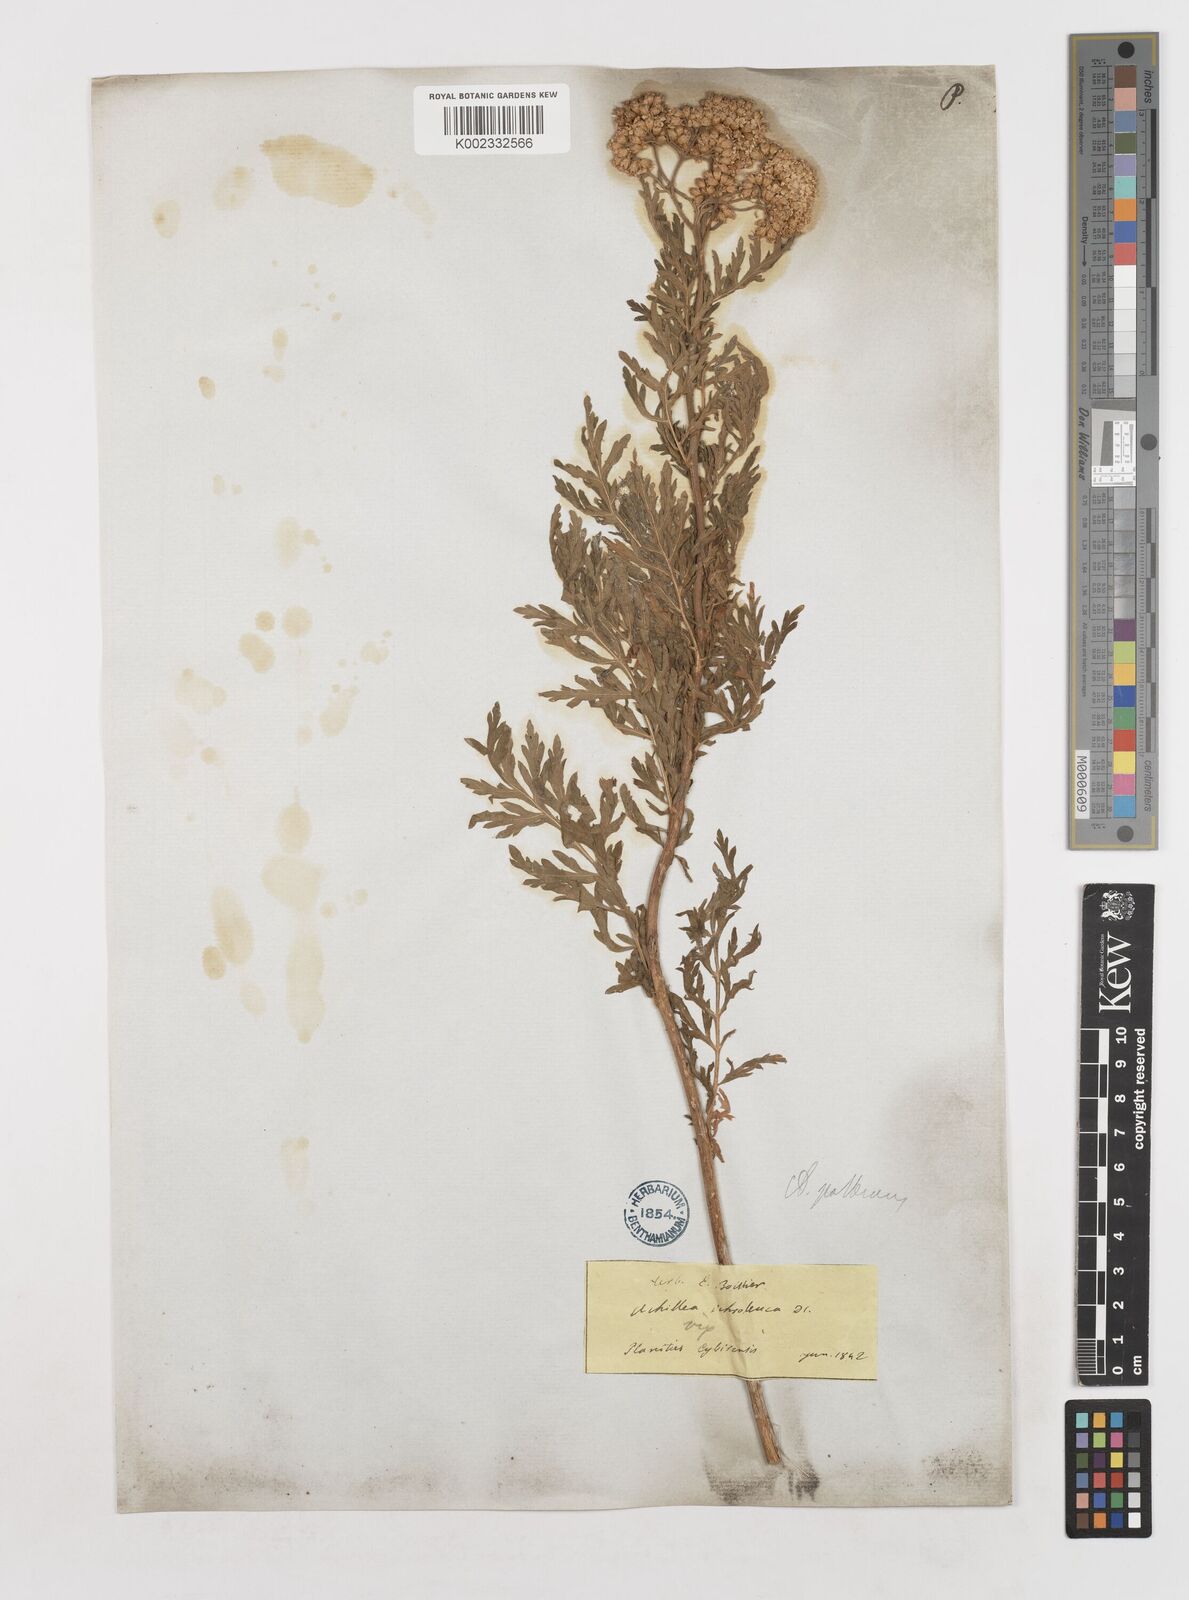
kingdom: Plantae
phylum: Tracheophyta
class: Magnoliopsida
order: Asterales
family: Asteraceae
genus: Achillea
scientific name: Achillea ptarmica
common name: Sneezeweed
